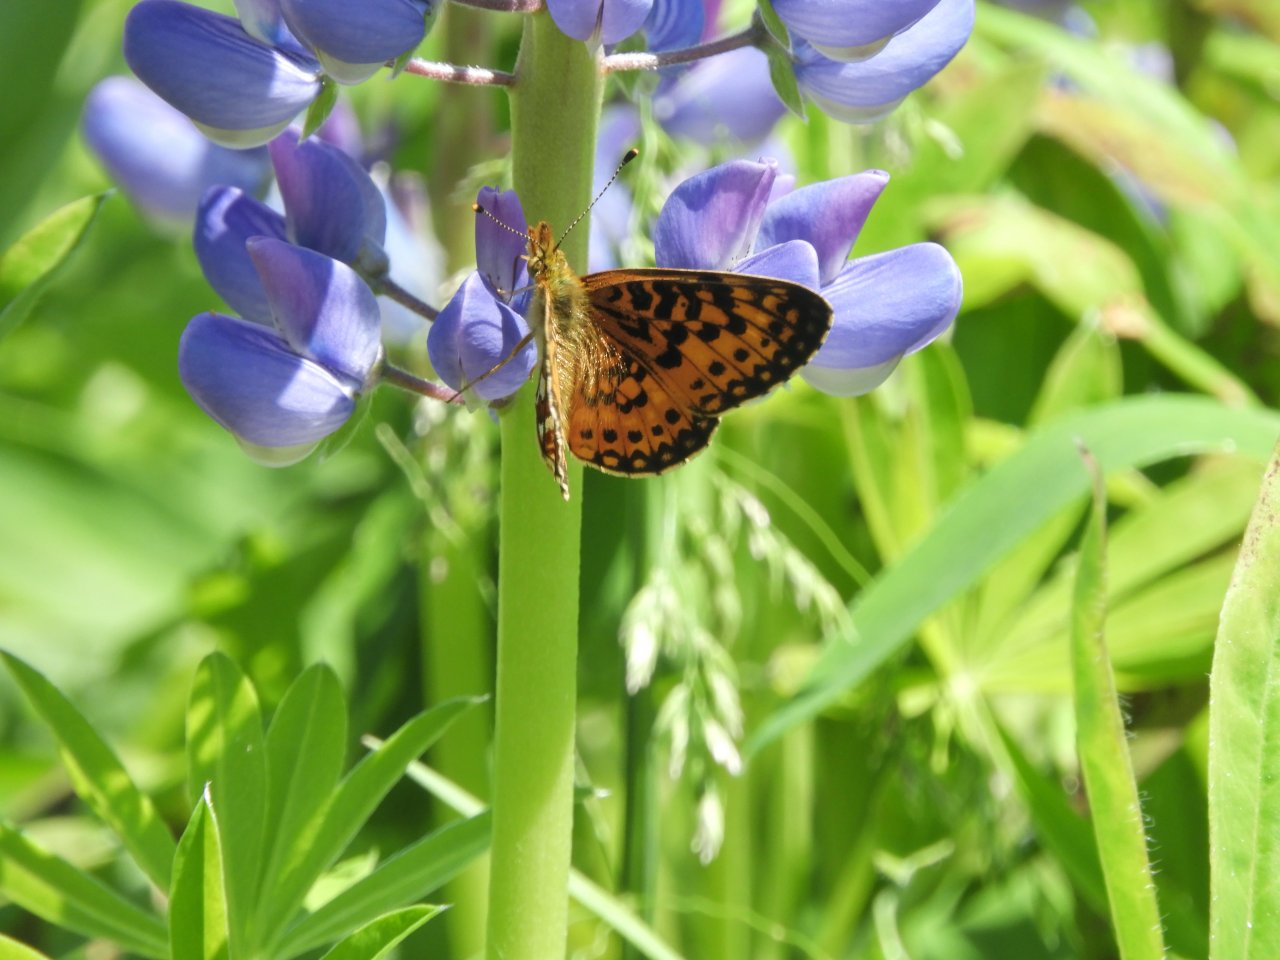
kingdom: Animalia
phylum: Arthropoda
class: Insecta
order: Lepidoptera
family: Nymphalidae
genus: Boloria
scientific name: Boloria selene
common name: Silver-bordered Fritillary
